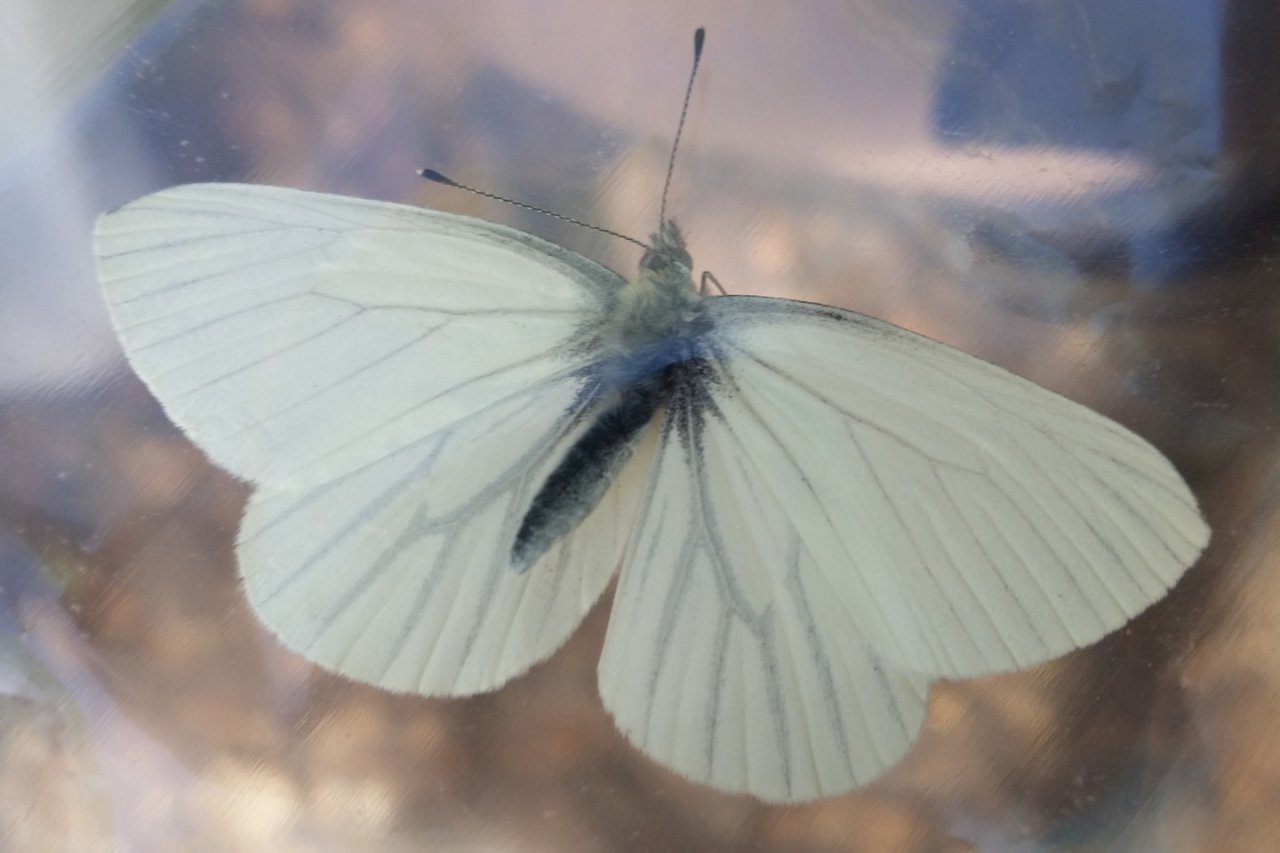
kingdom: Animalia
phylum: Arthropoda
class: Insecta
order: Lepidoptera
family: Pieridae
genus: Pieris
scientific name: Pieris oleracea
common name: Mustard White
